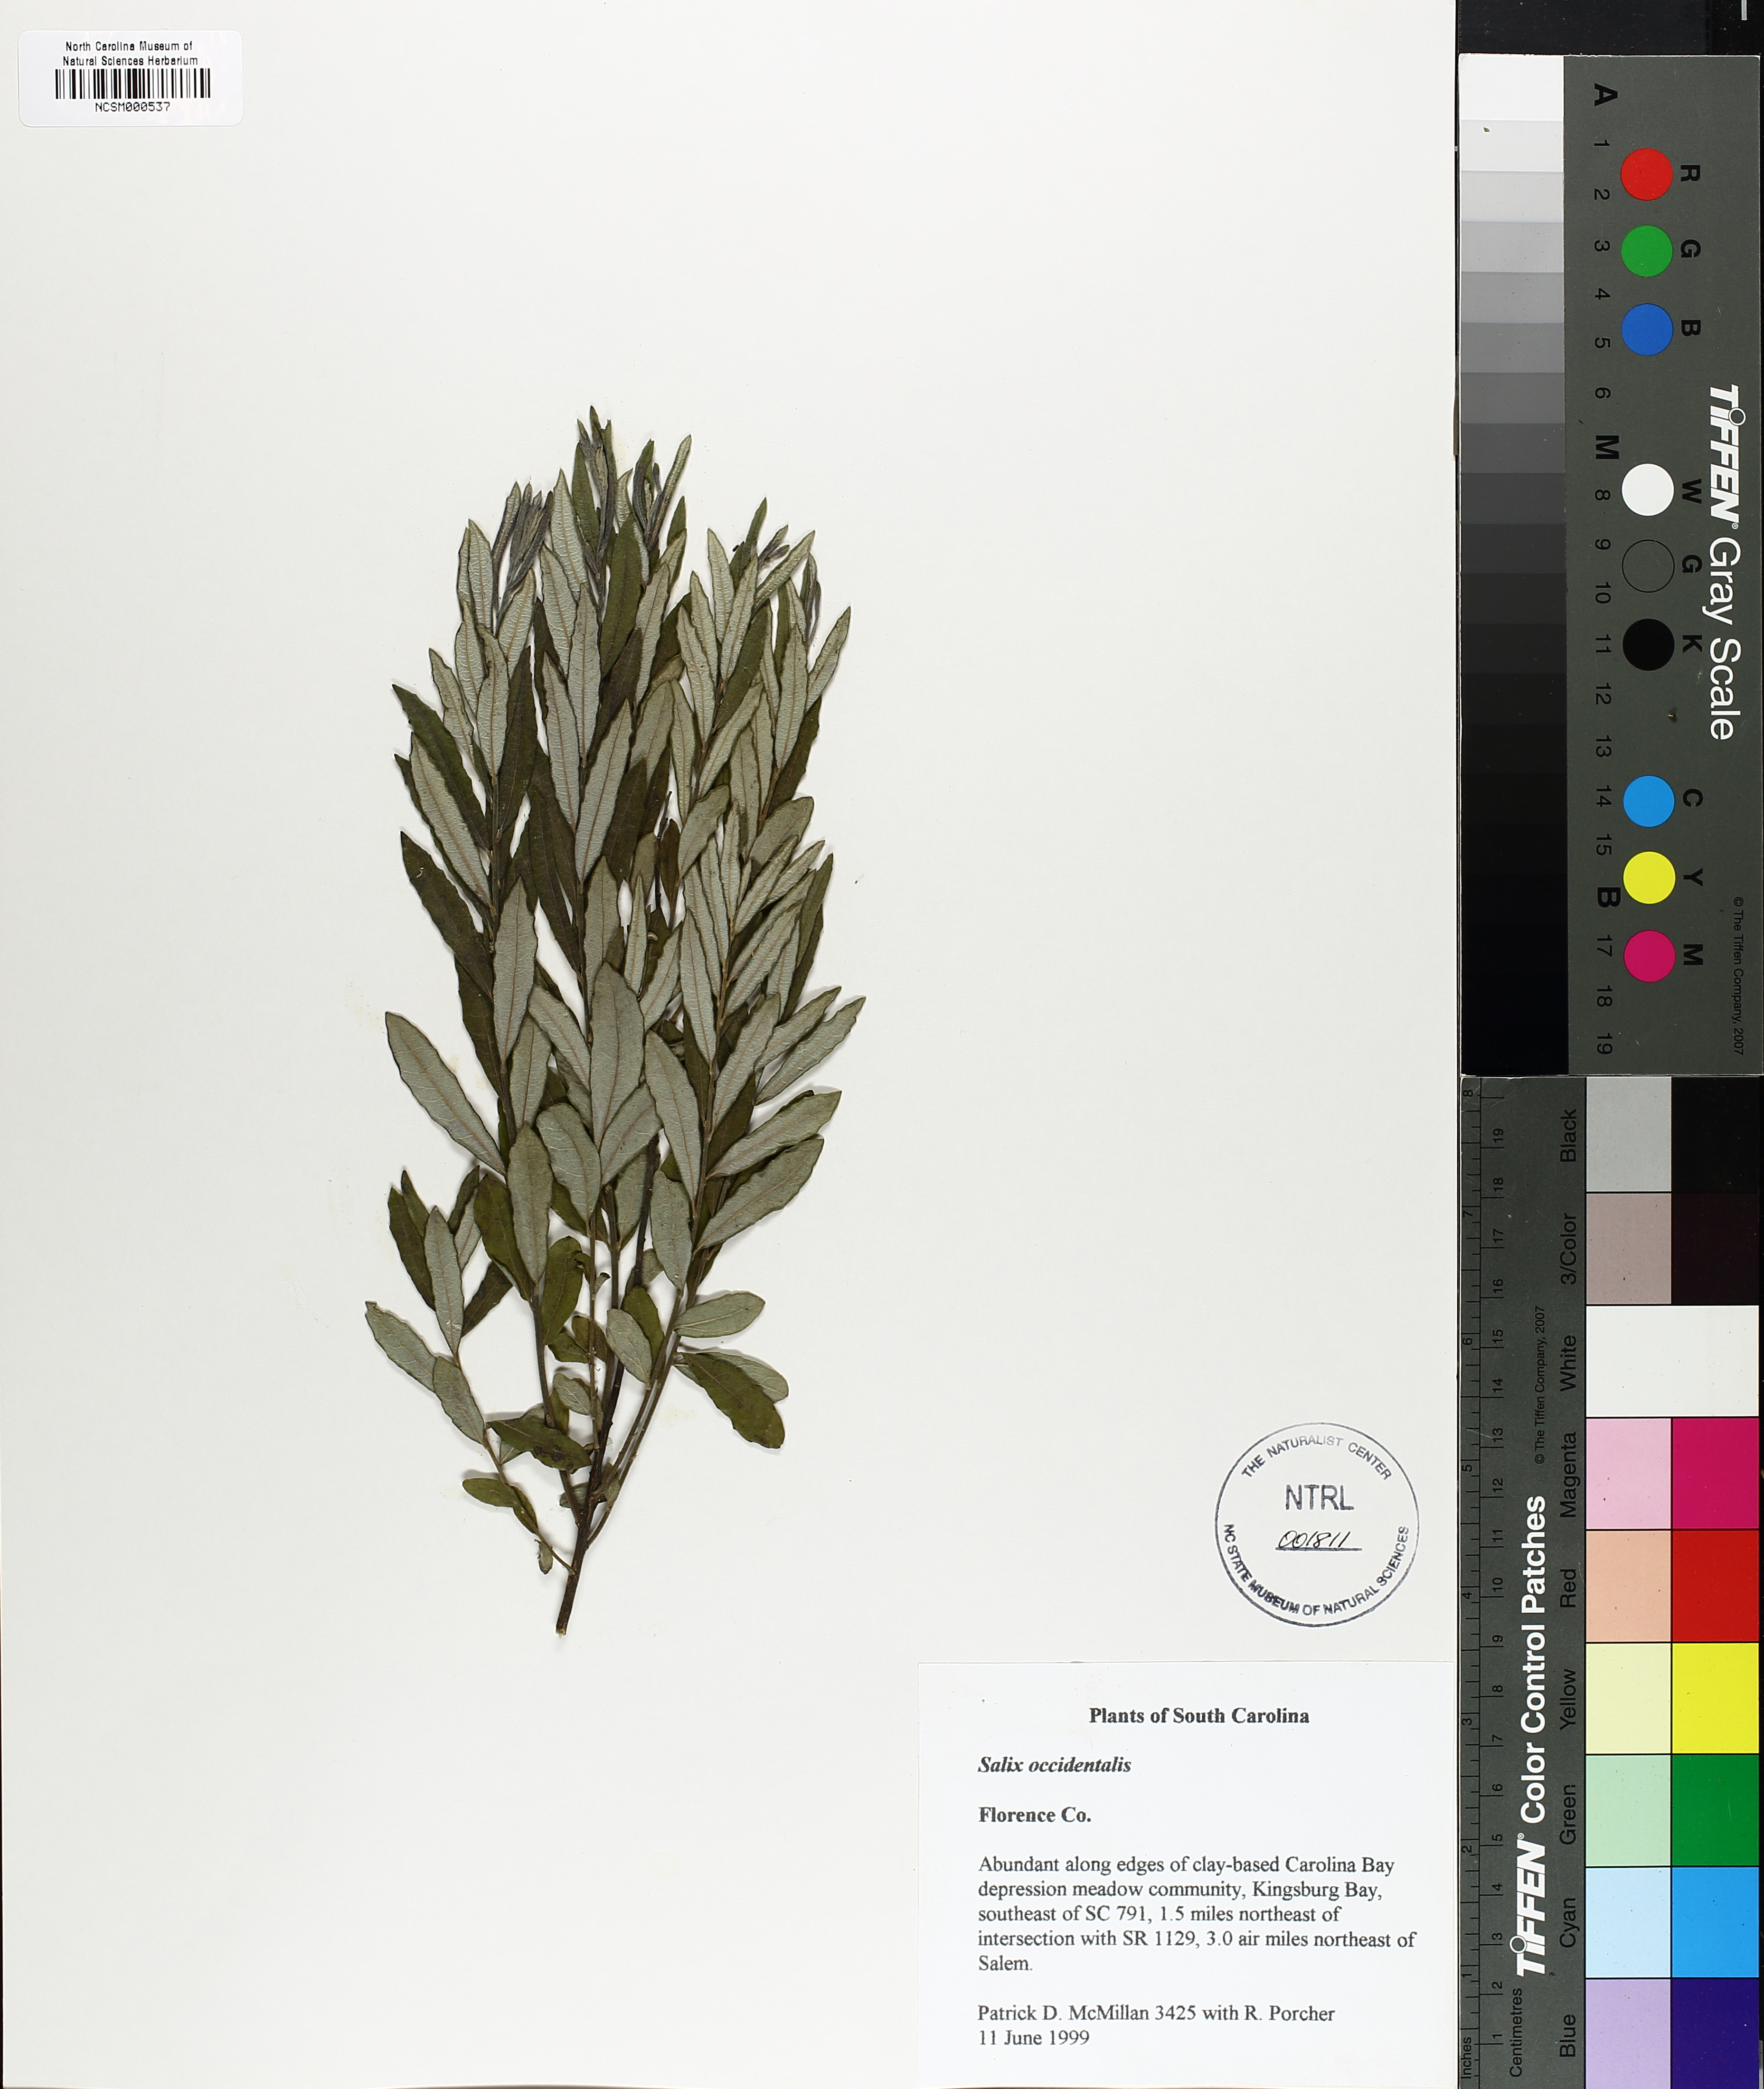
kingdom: Plantae
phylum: Tracheophyta
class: Magnoliopsida
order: Malpighiales
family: Salicaceae
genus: Salix
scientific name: Salix caroliniana
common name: Carolina willow
